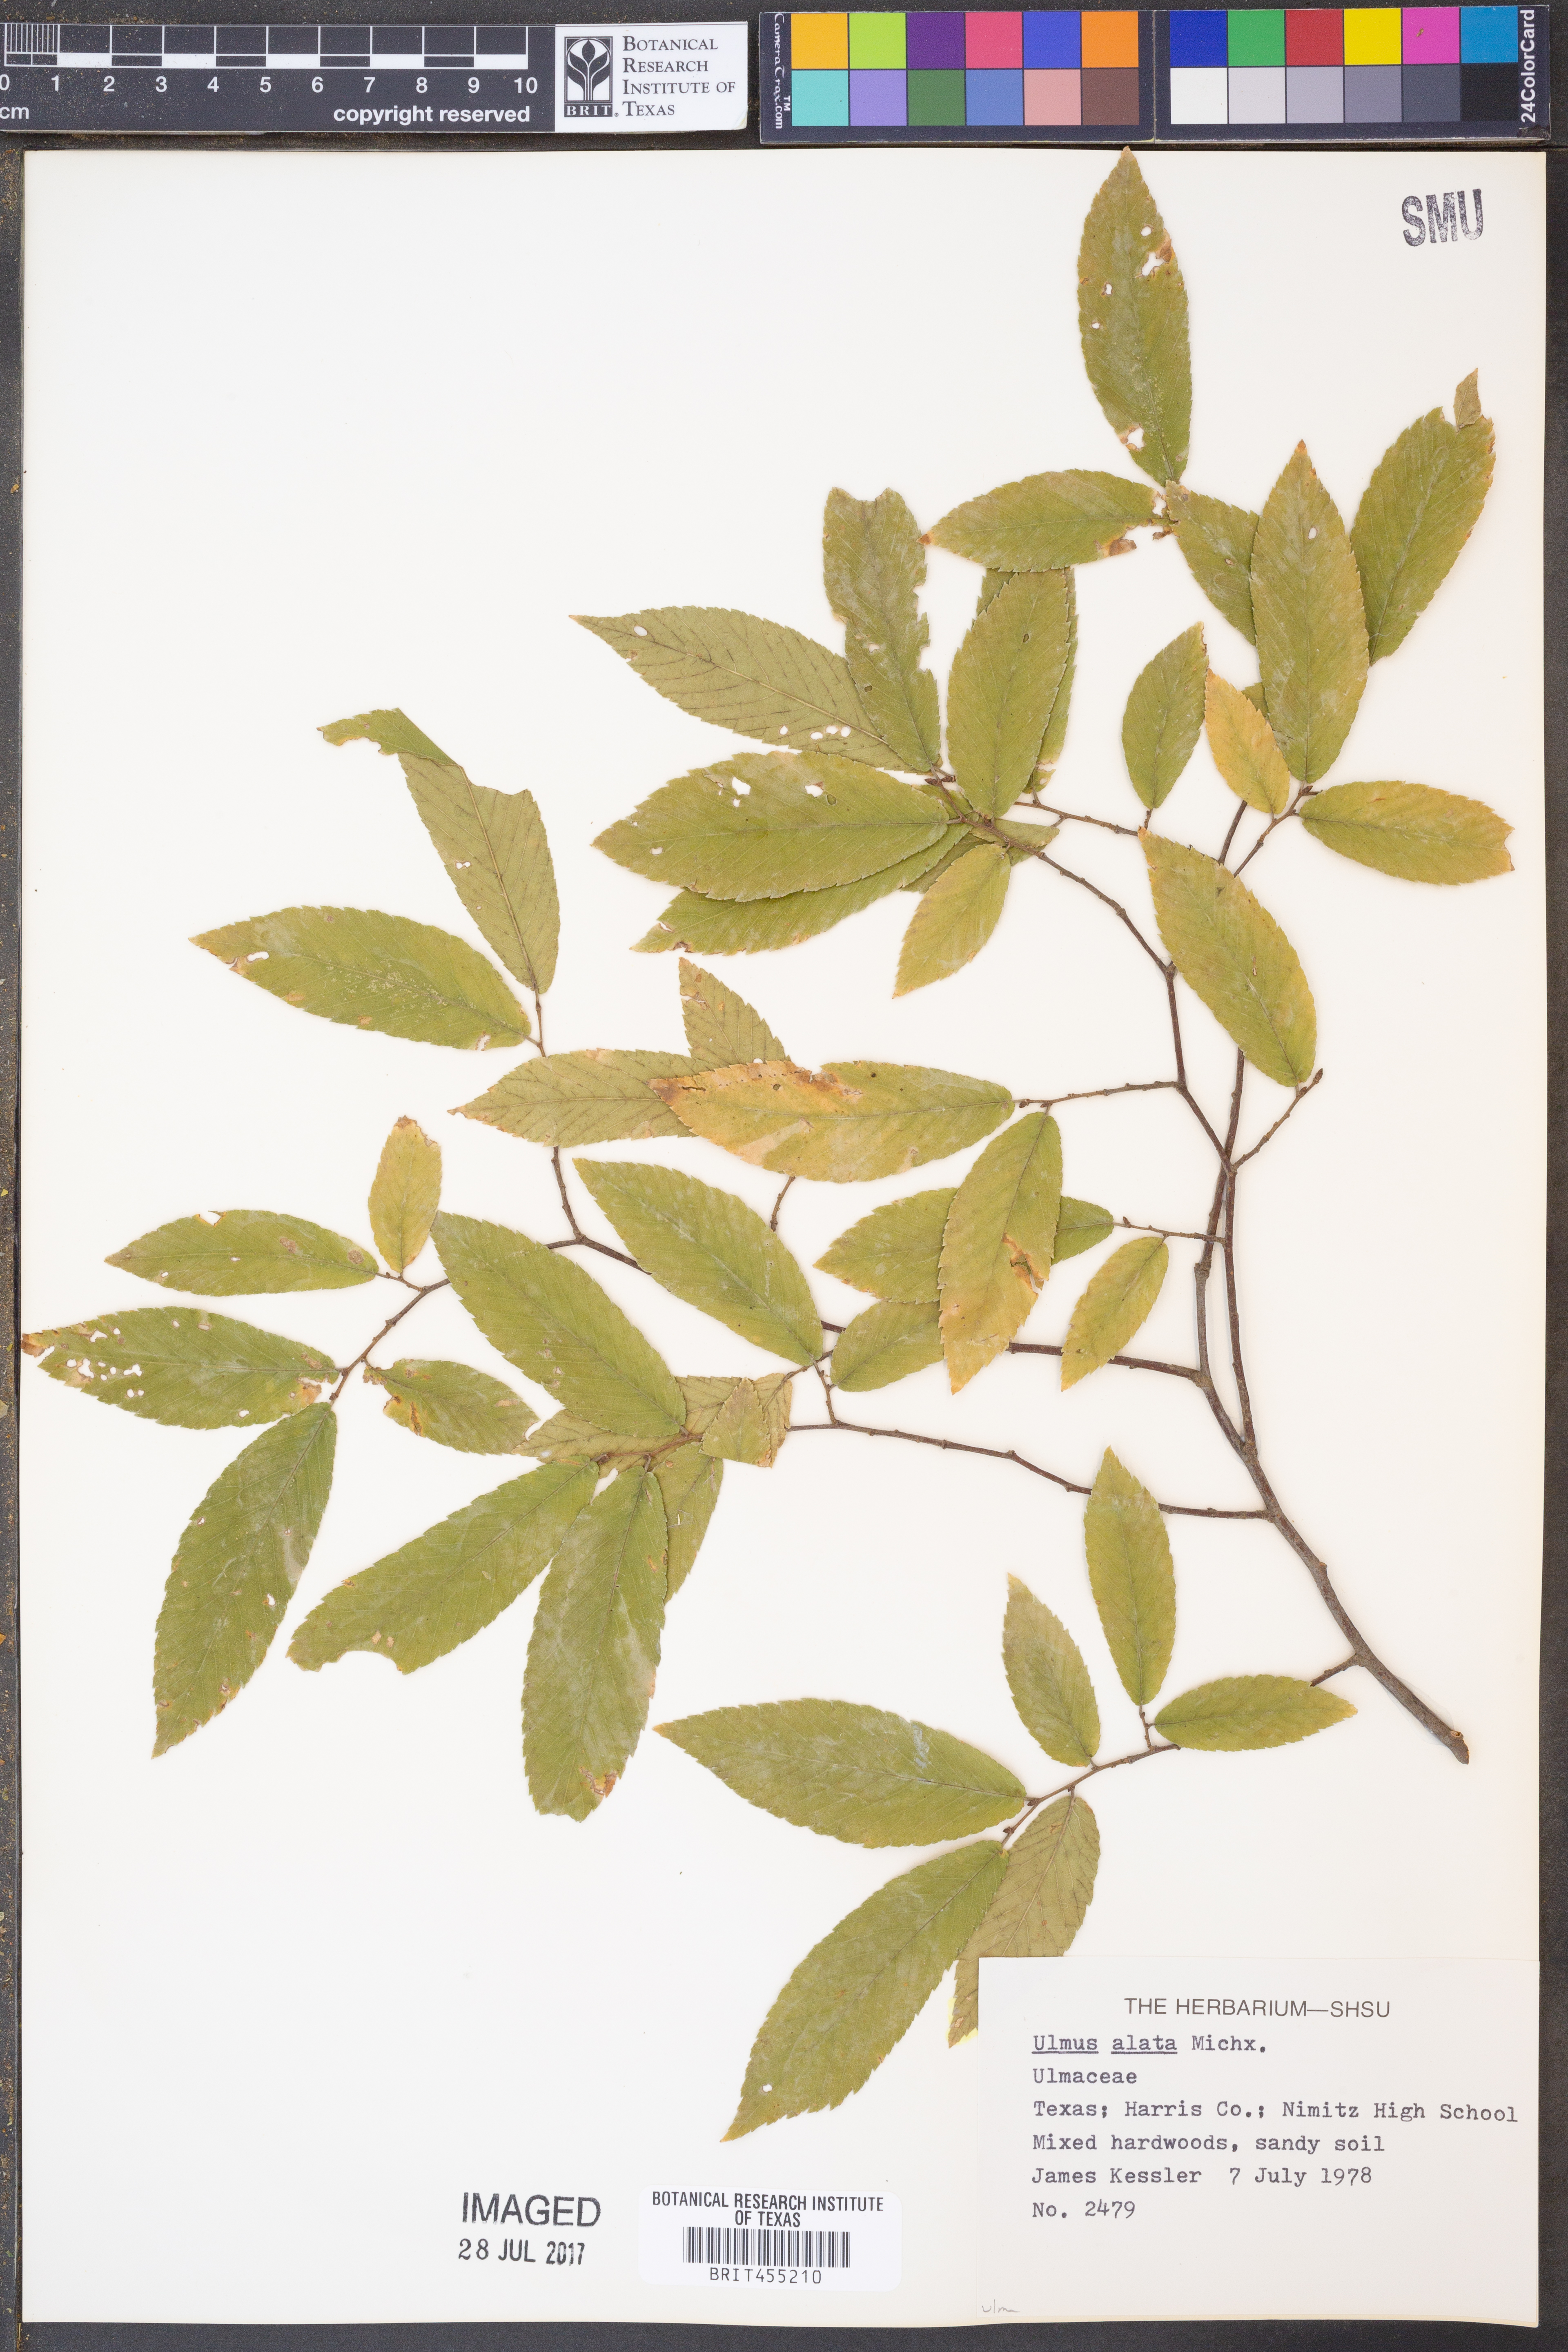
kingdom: Plantae
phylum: Tracheophyta
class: Magnoliopsida
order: Rosales
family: Ulmaceae
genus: Ulmus
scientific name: Ulmus alata
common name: Winged elm
